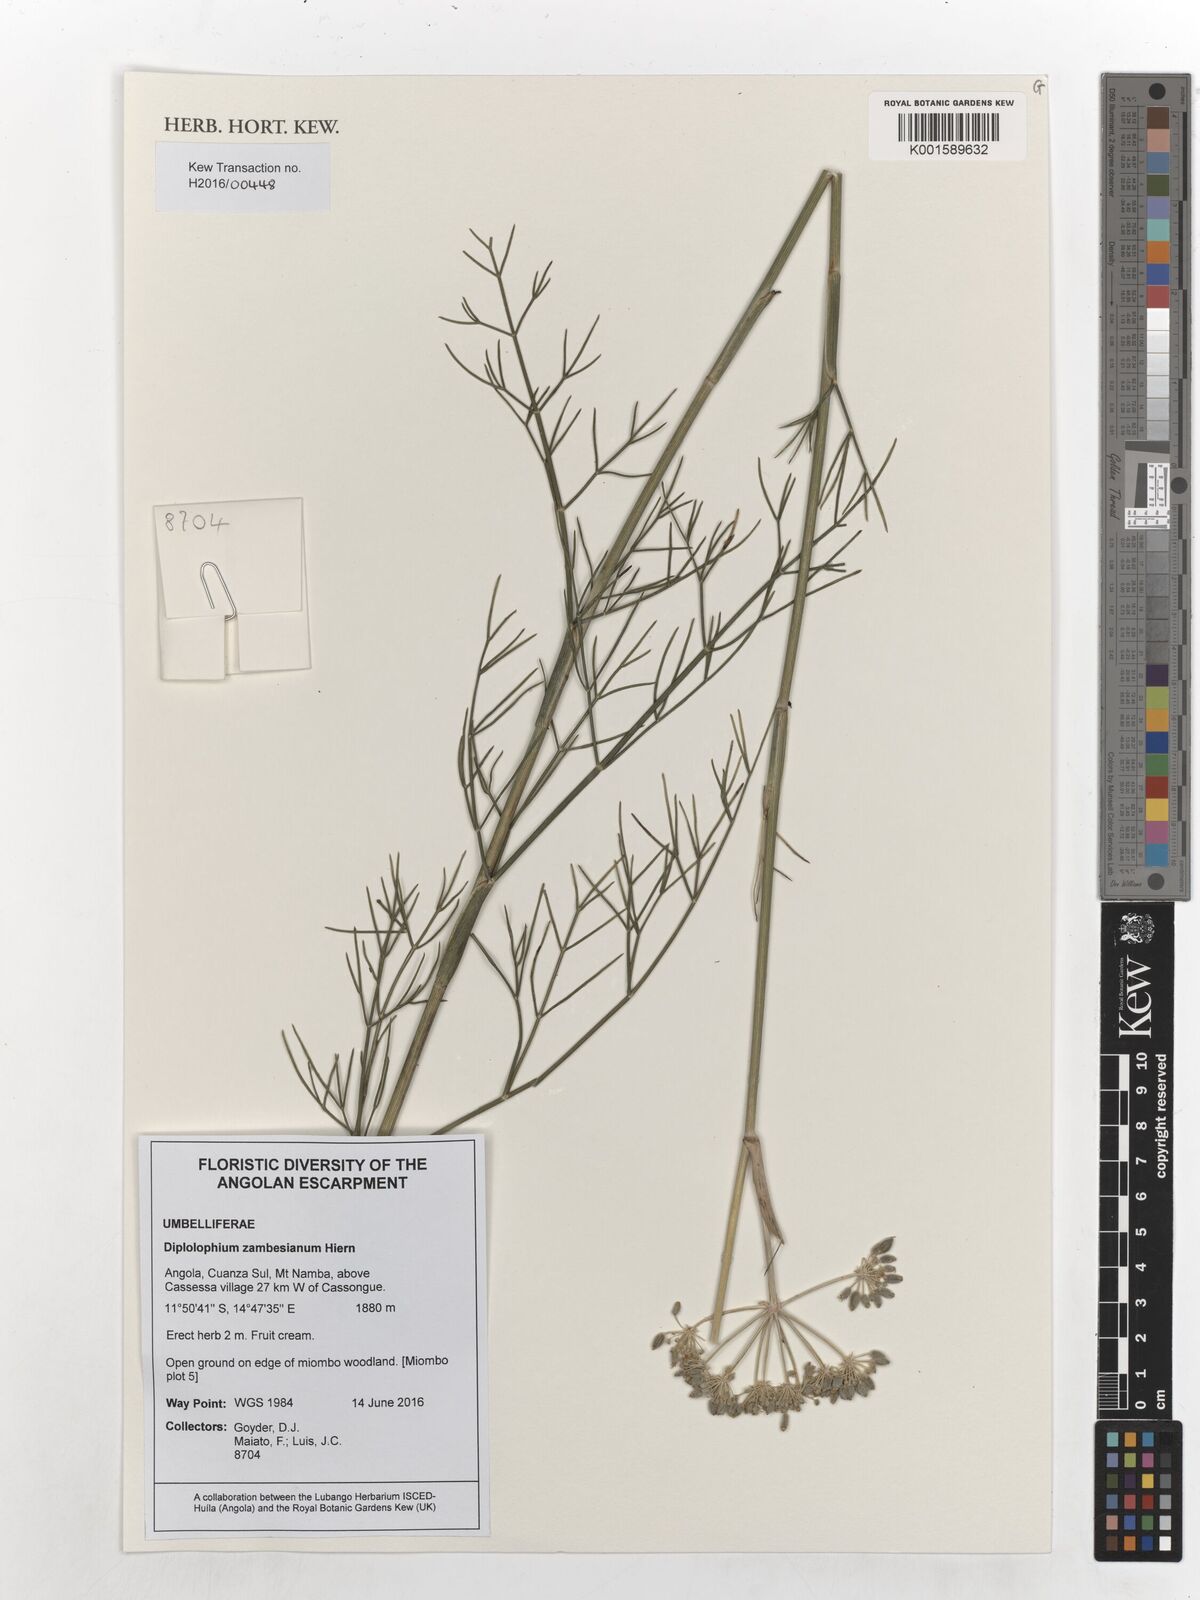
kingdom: Plantae
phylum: Tracheophyta
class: Magnoliopsida
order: Apiales
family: Apiaceae
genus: Diplolophium
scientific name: Diplolophium zambesianum
